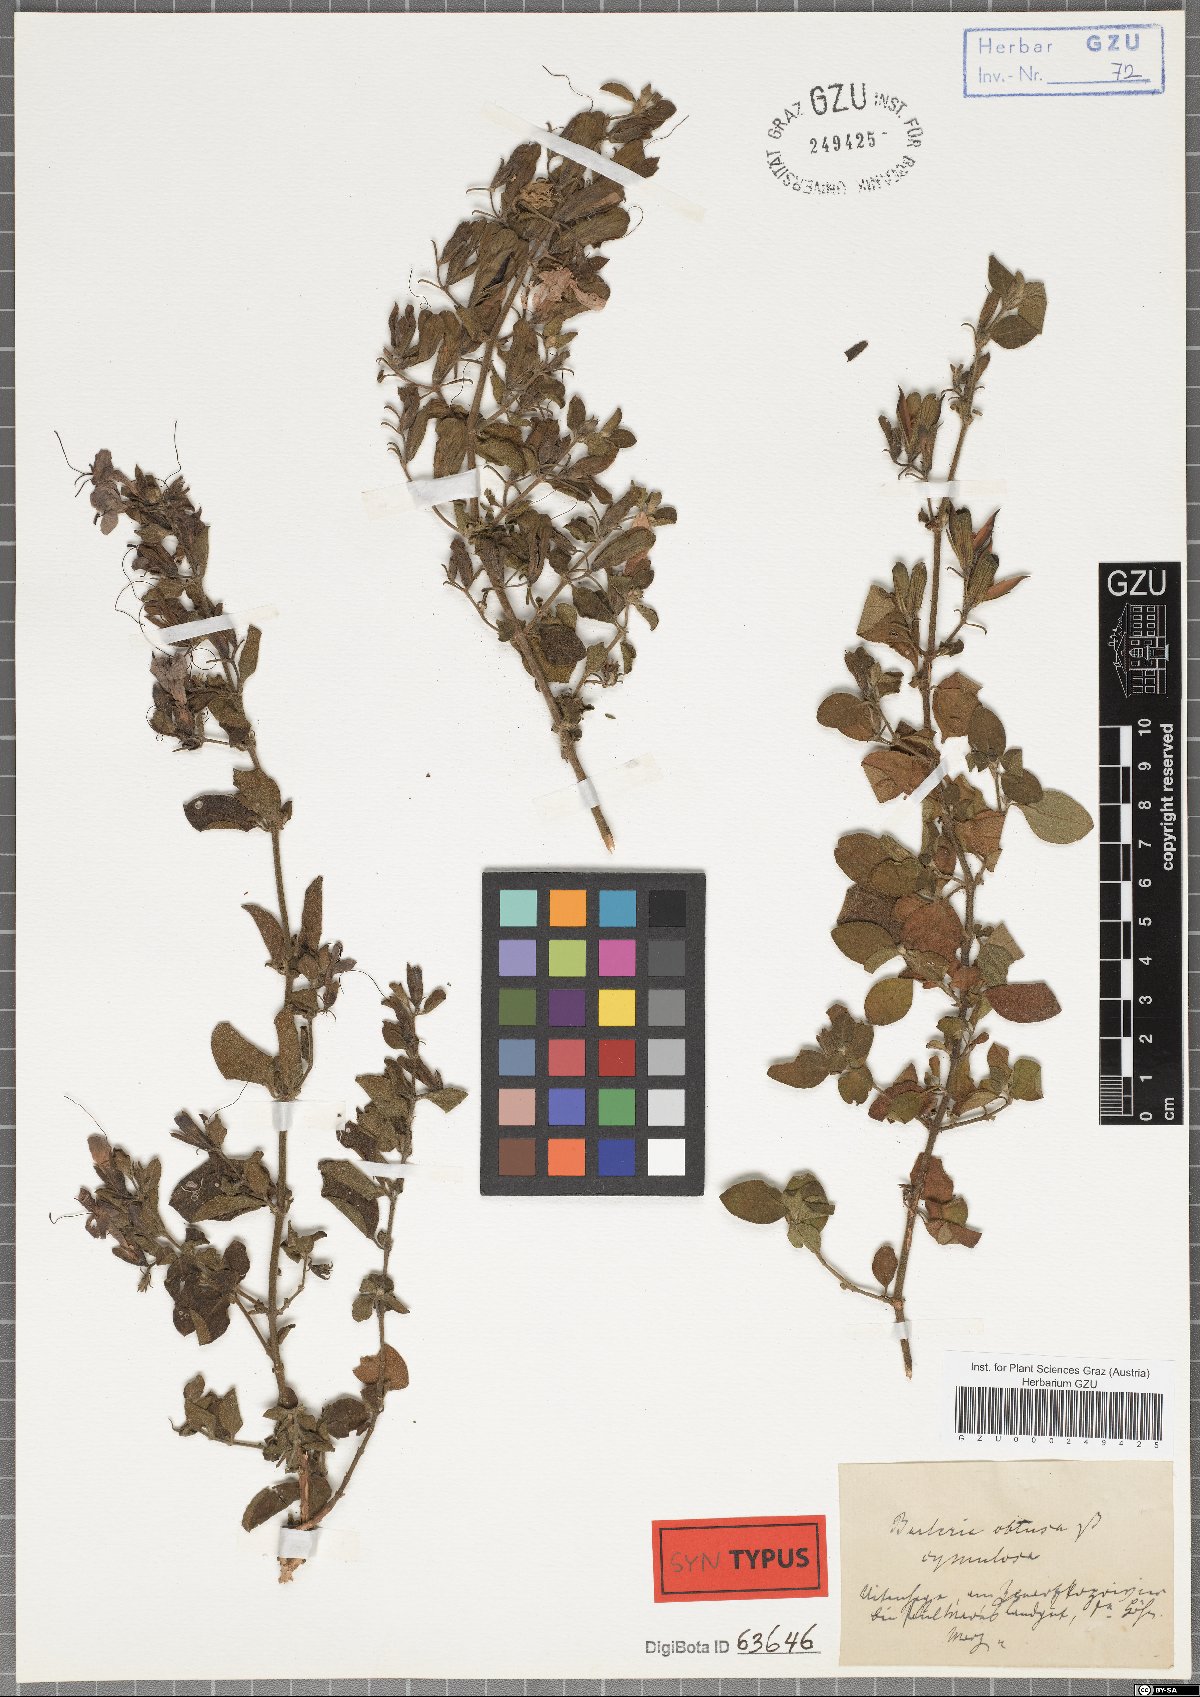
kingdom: Plantae
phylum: Tracheophyta
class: Magnoliopsida
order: Lamiales
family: Acanthaceae
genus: Barleria
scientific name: Barleria obtusa
